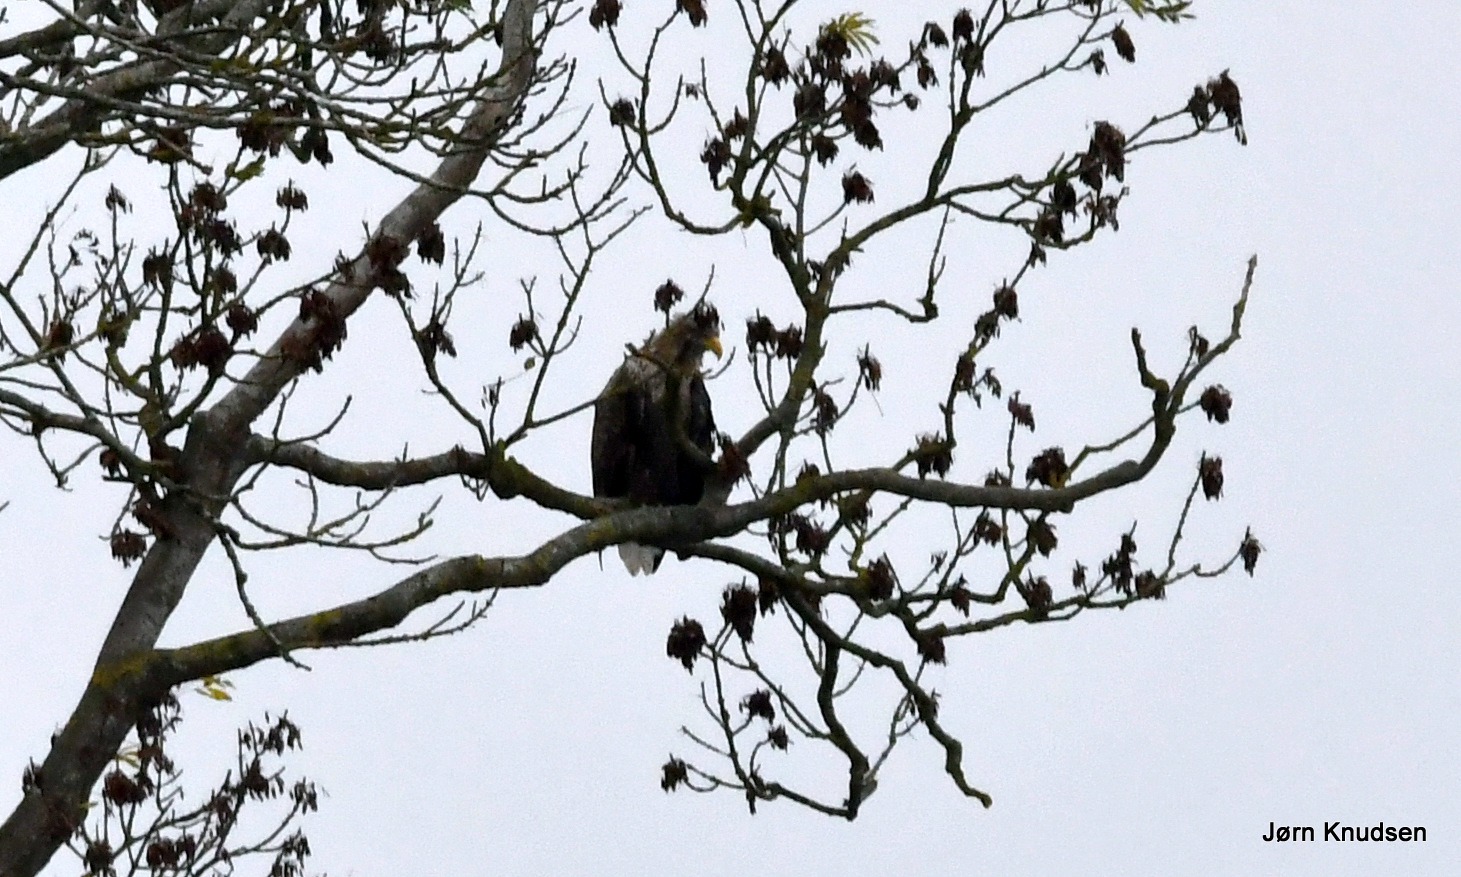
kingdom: Animalia
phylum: Chordata
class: Aves
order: Accipitriformes
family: Accipitridae
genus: Haliaeetus
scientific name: Haliaeetus albicilla
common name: Havørn
